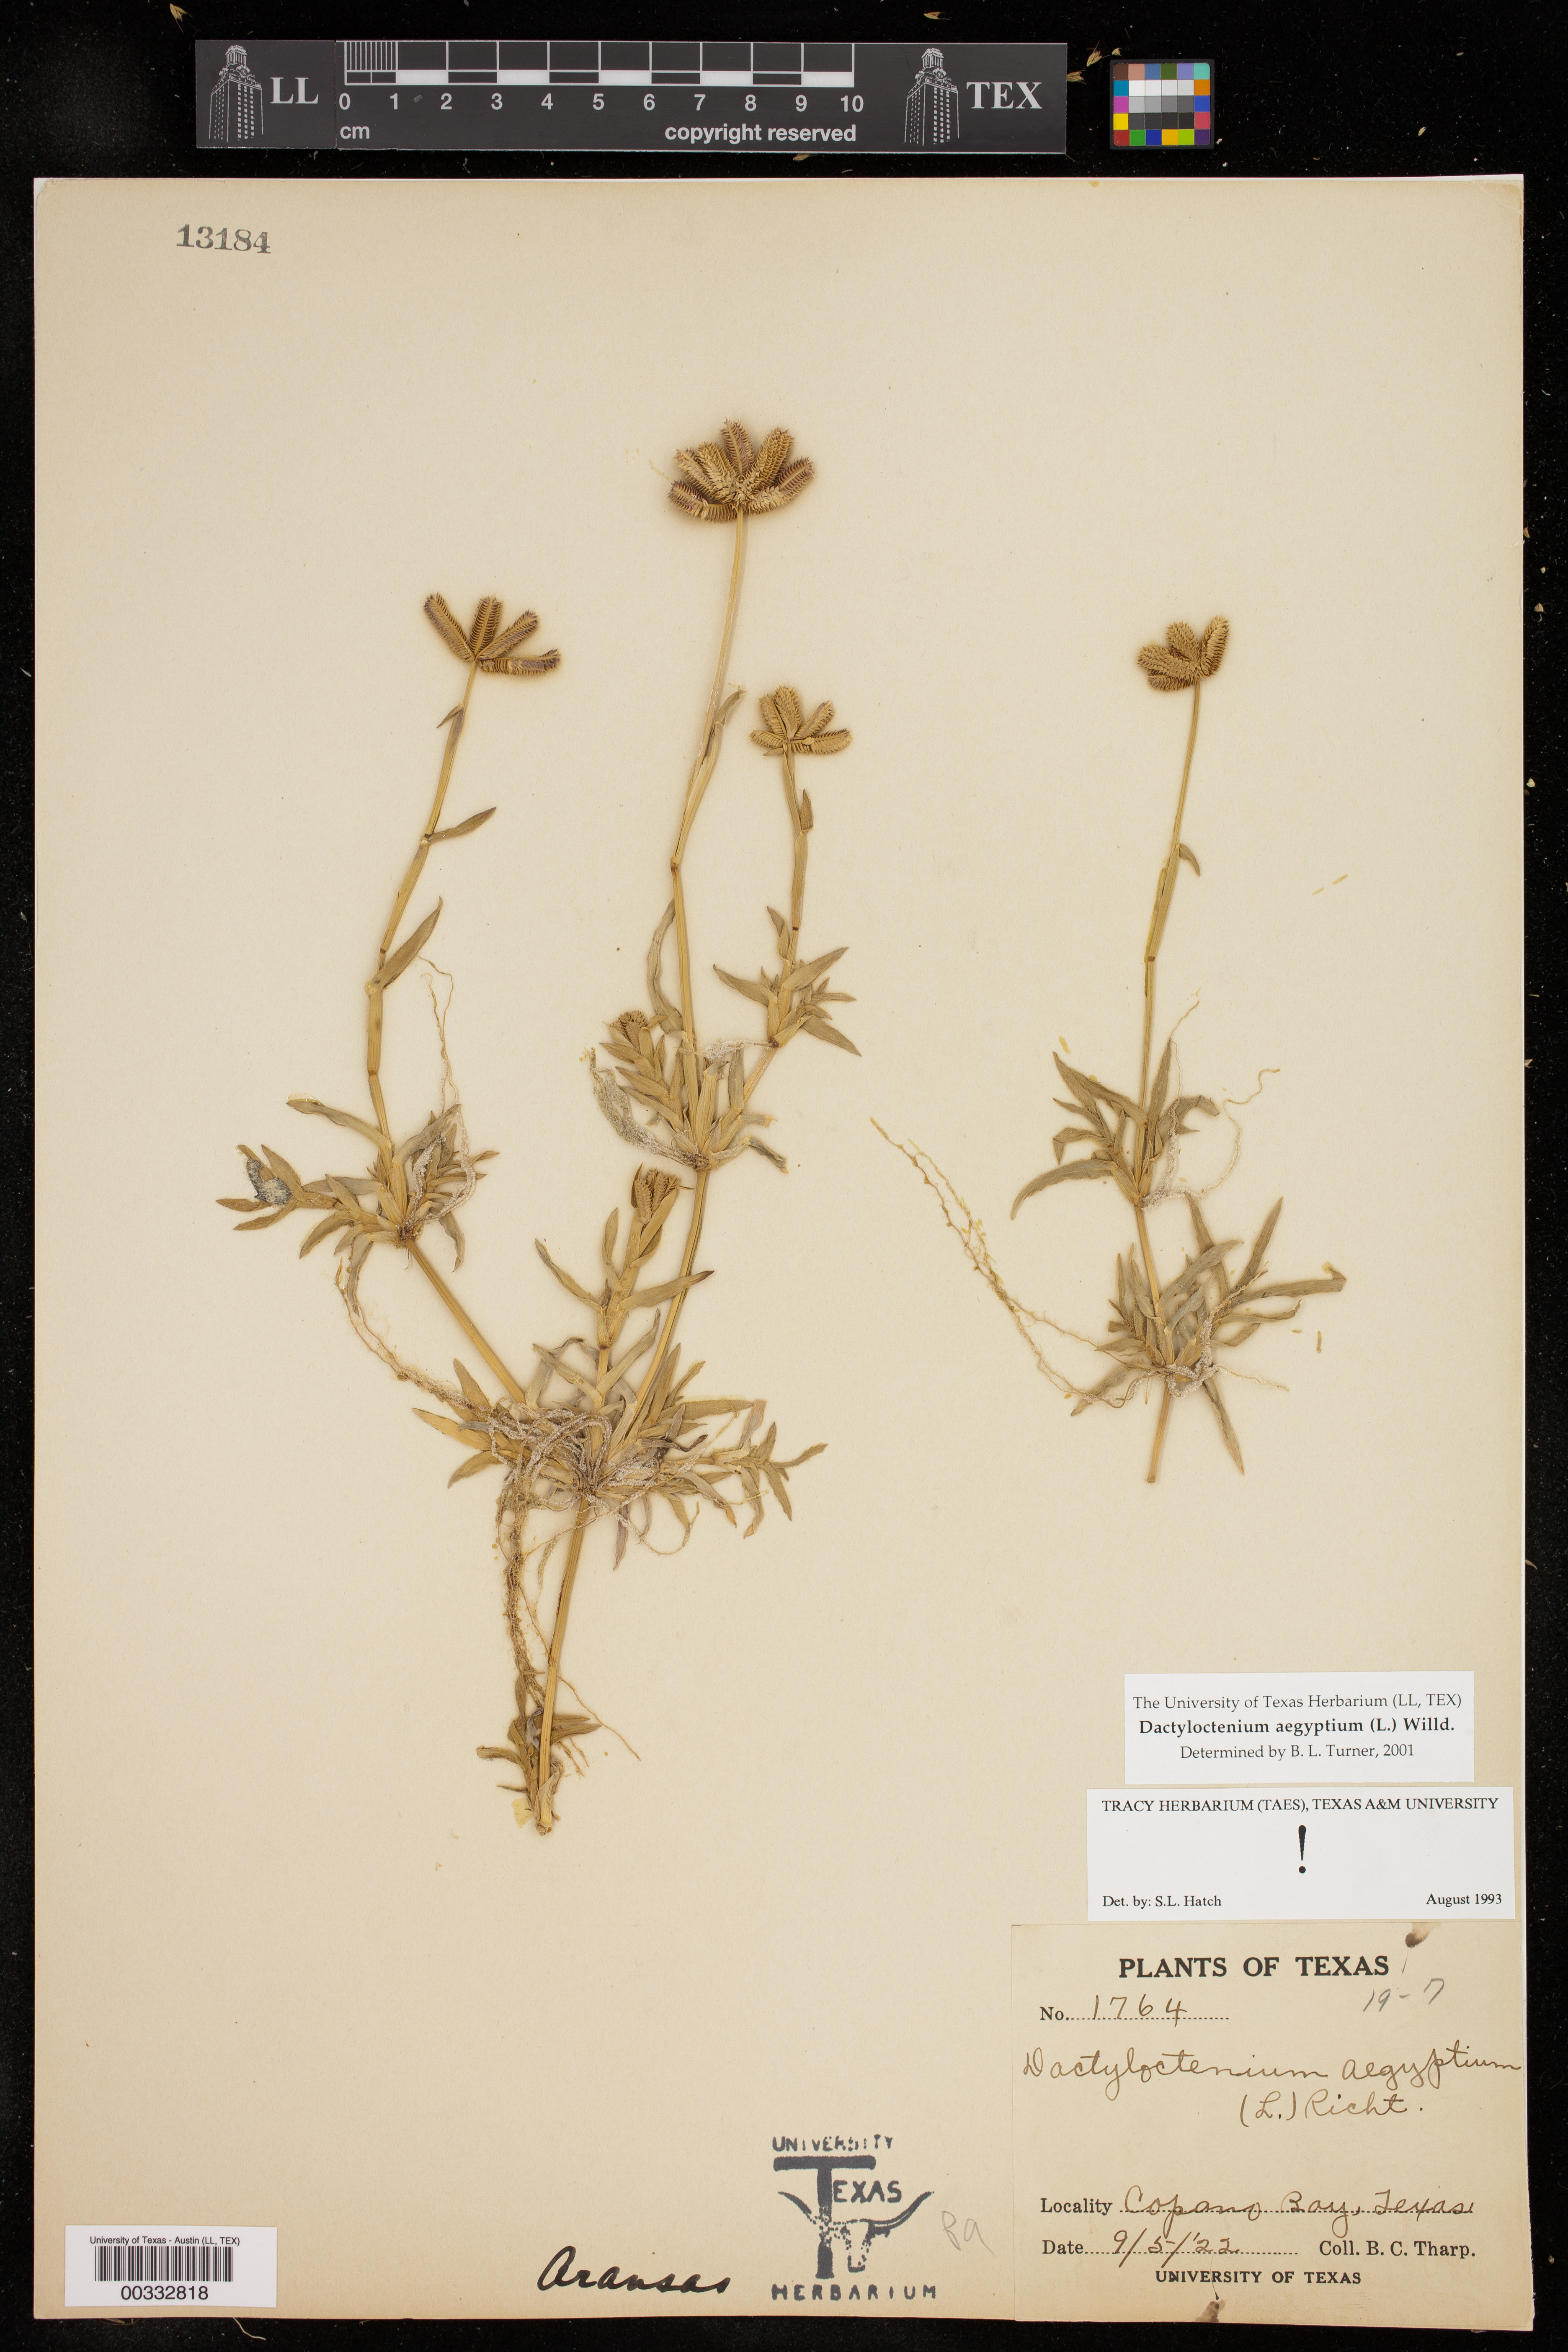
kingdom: Plantae
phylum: Tracheophyta
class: Liliopsida
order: Poales
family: Poaceae
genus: Dactyloctenium
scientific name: Dactyloctenium aegyptium
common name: Egyptian grass
